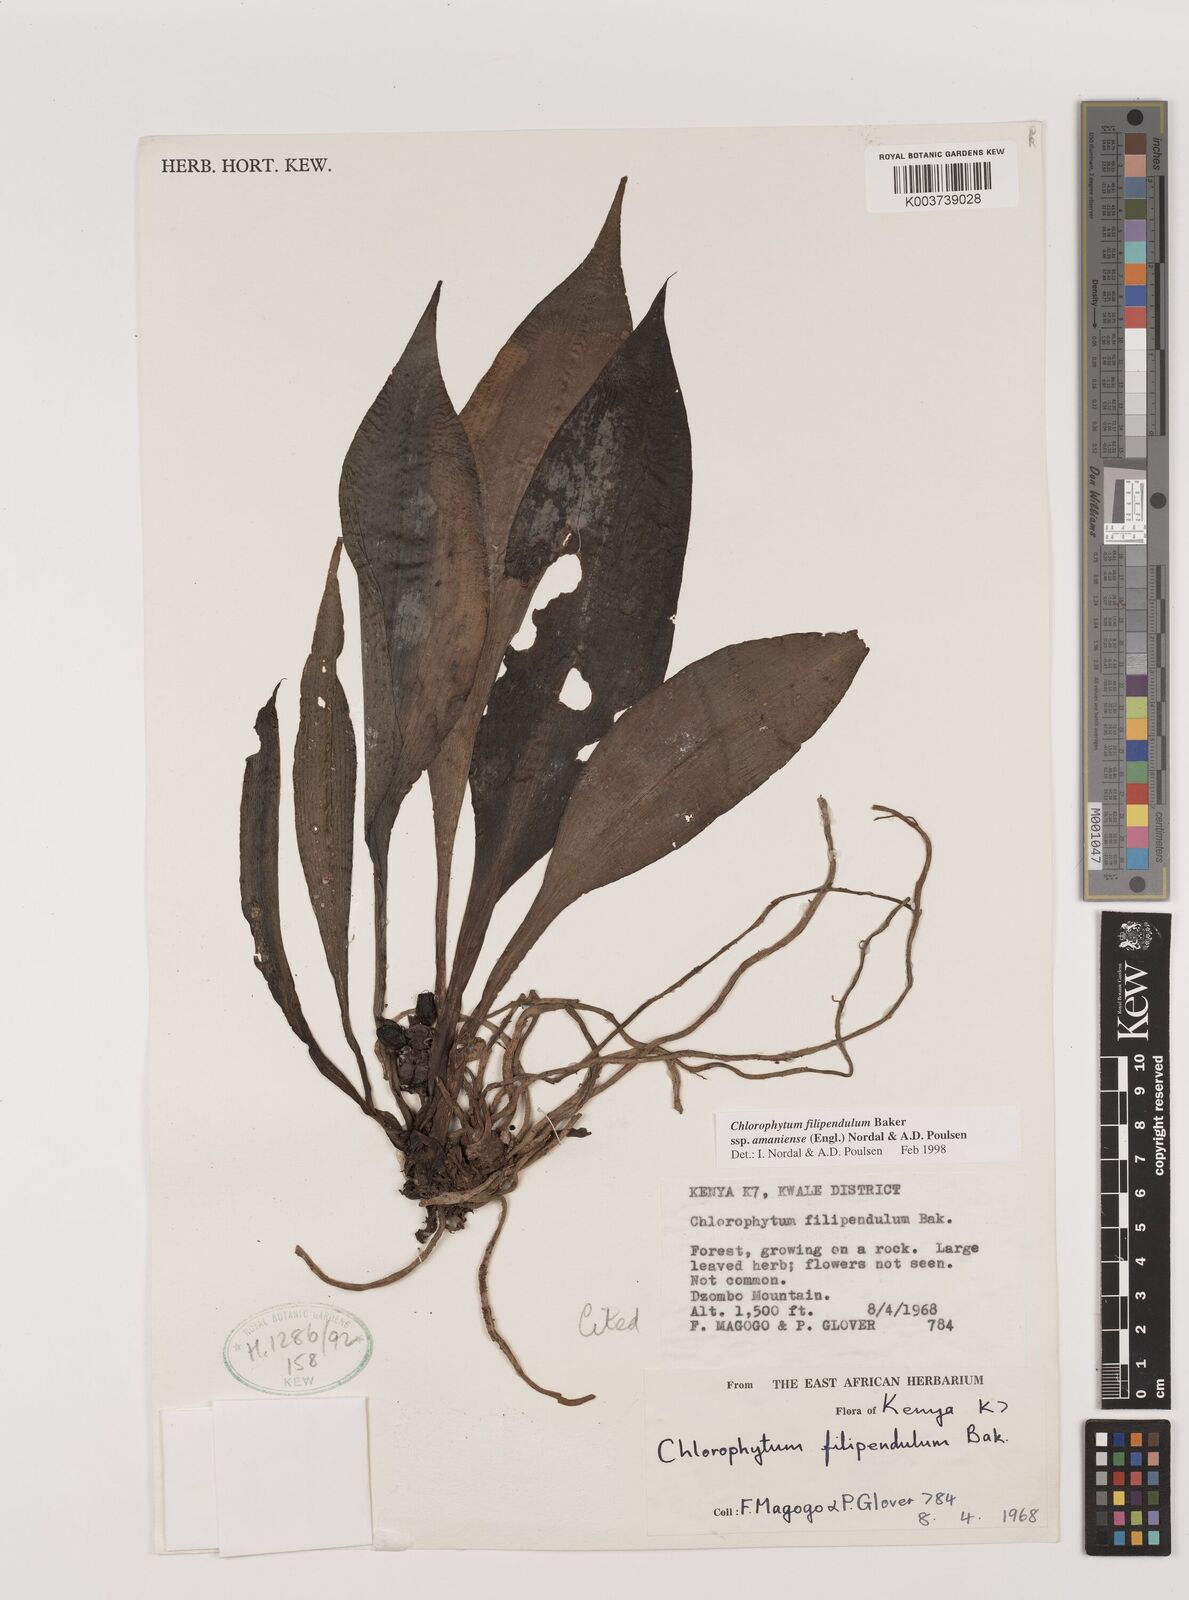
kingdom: Plantae
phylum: Tracheophyta
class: Liliopsida
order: Asparagales
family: Asparagaceae
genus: Chlorophytum
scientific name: Chlorophytum filipendulum
